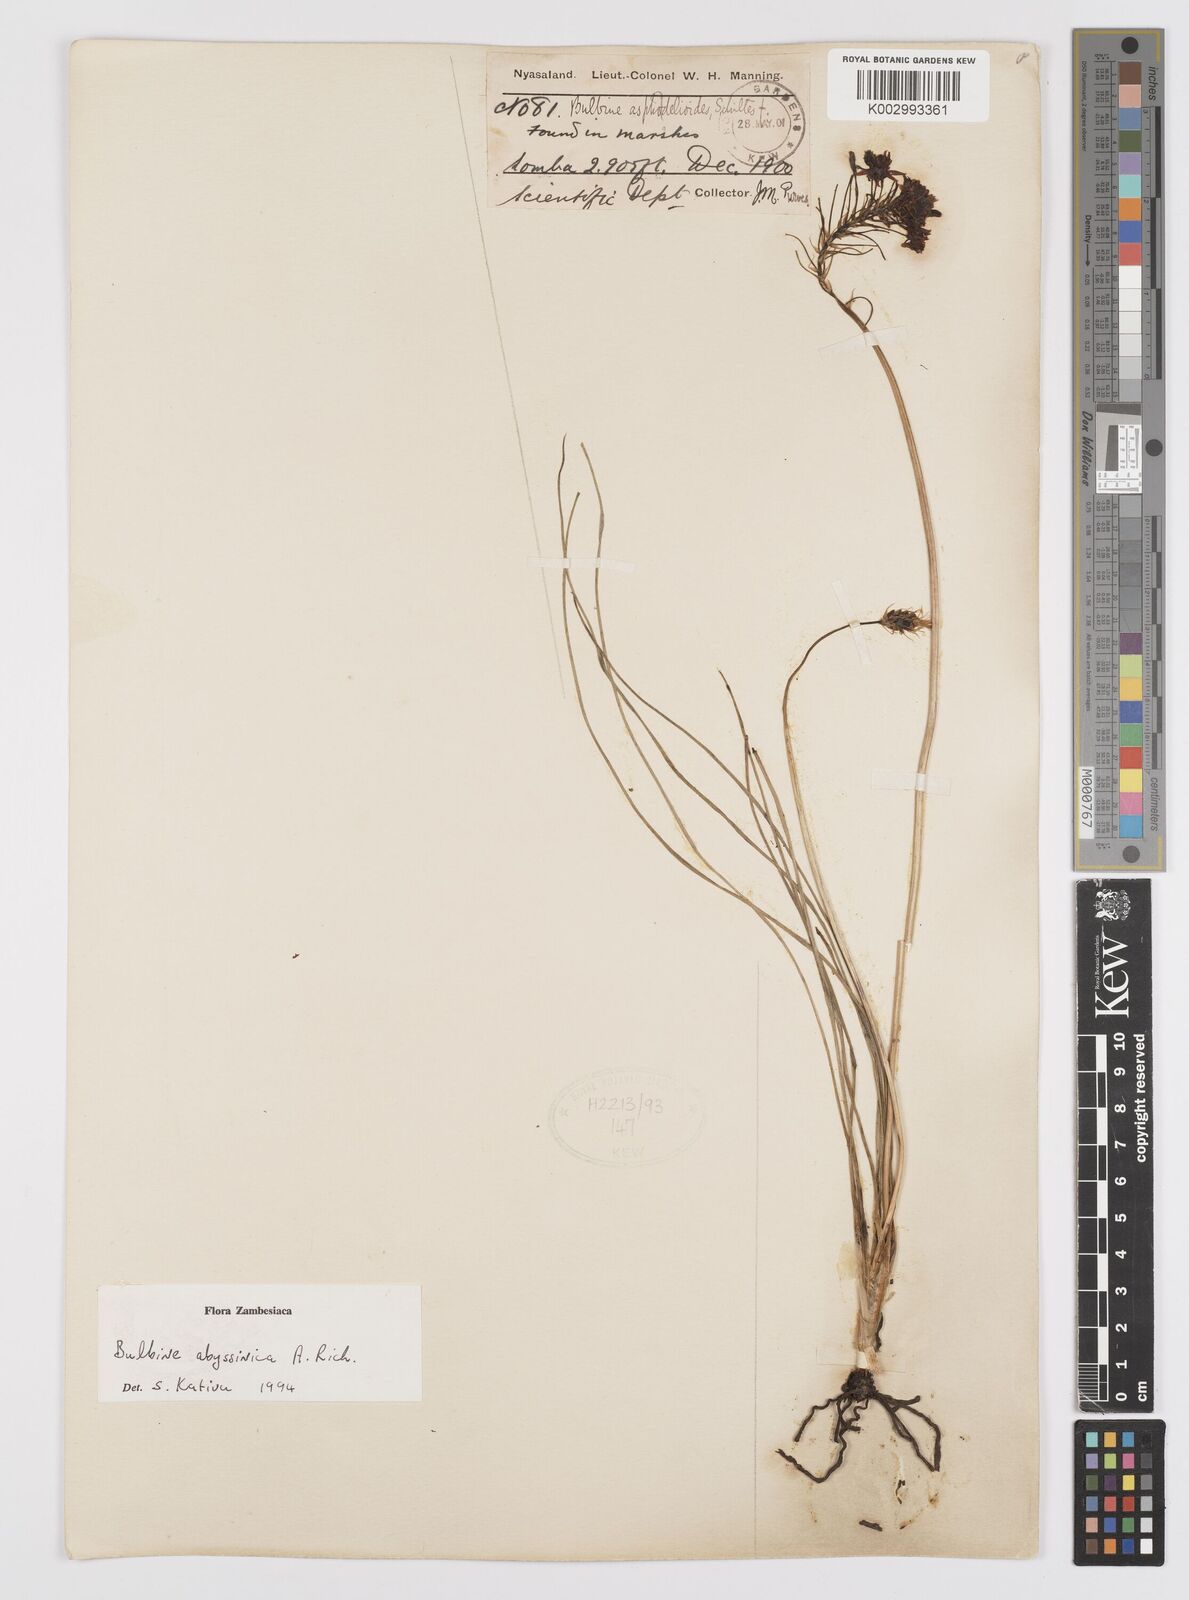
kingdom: Plantae
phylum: Tracheophyta
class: Liliopsida
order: Asparagales
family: Asphodelaceae
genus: Bulbine
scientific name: Bulbine abyssinica
